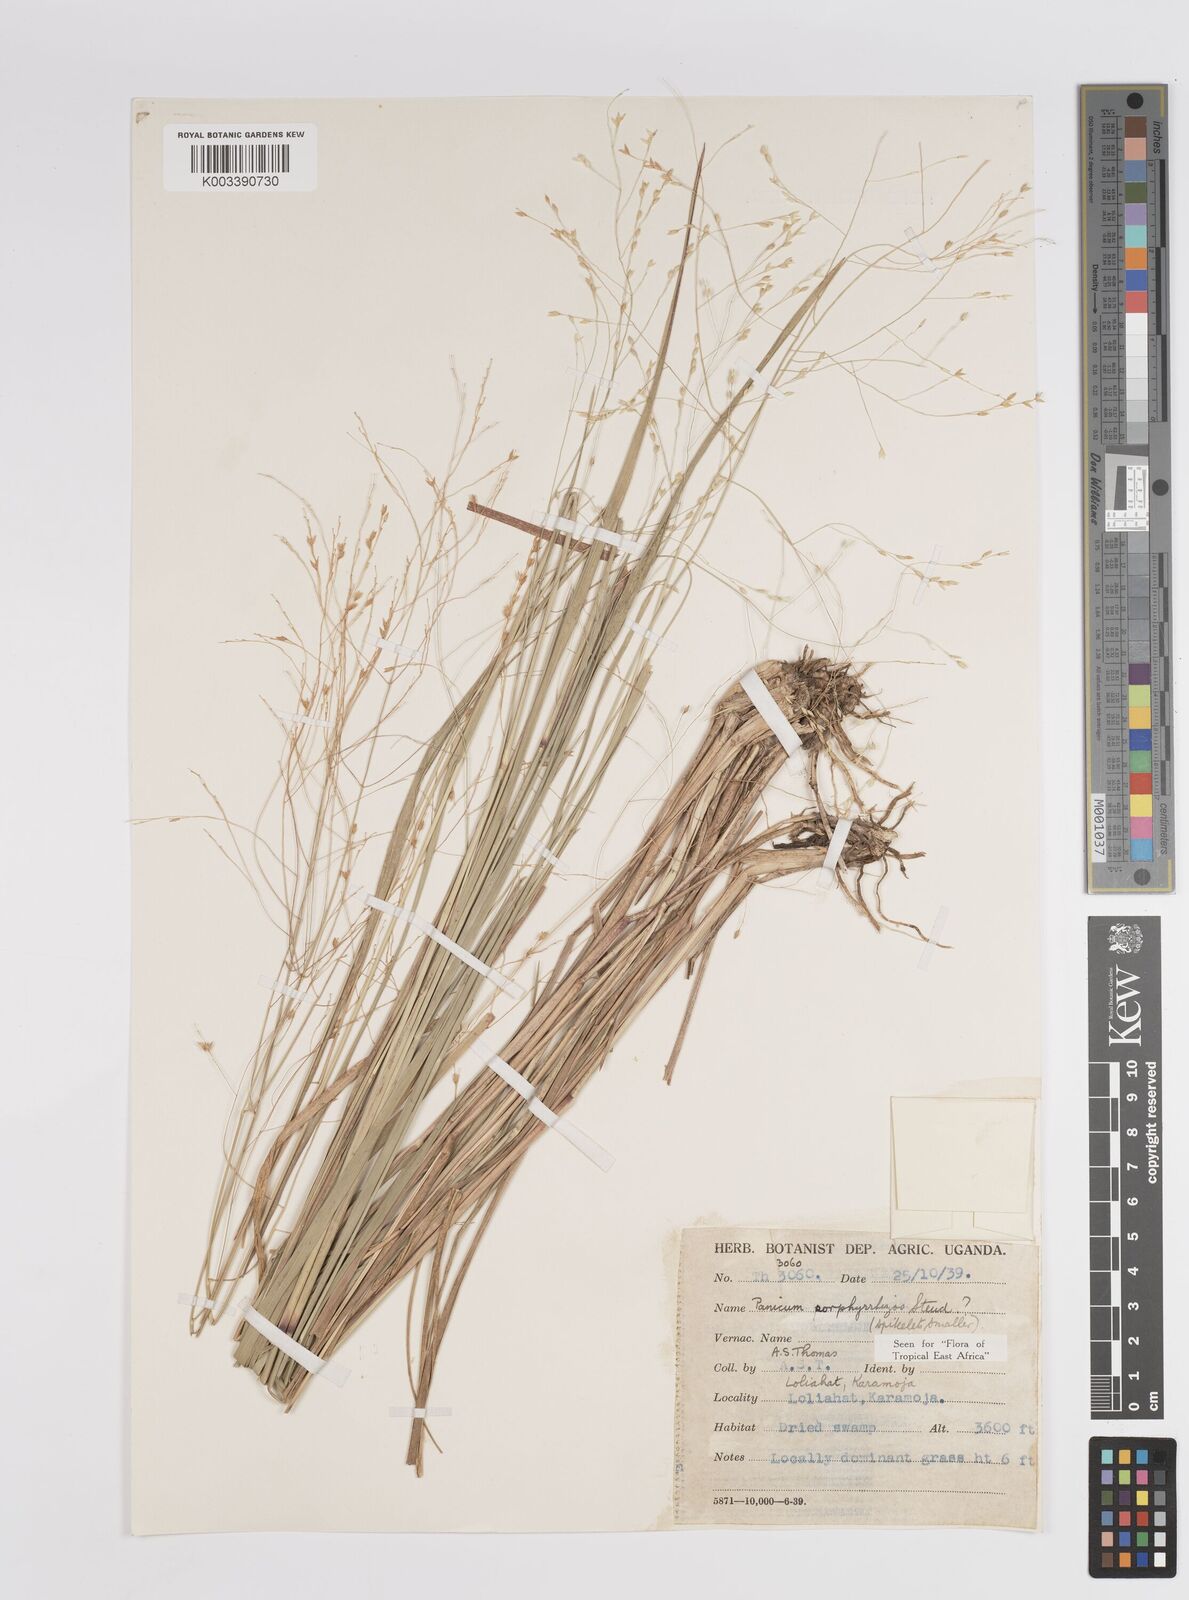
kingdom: Plantae
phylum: Tracheophyta
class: Liliopsida
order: Poales
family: Poaceae
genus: Panicum
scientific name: Panicum porphyrrhizos
